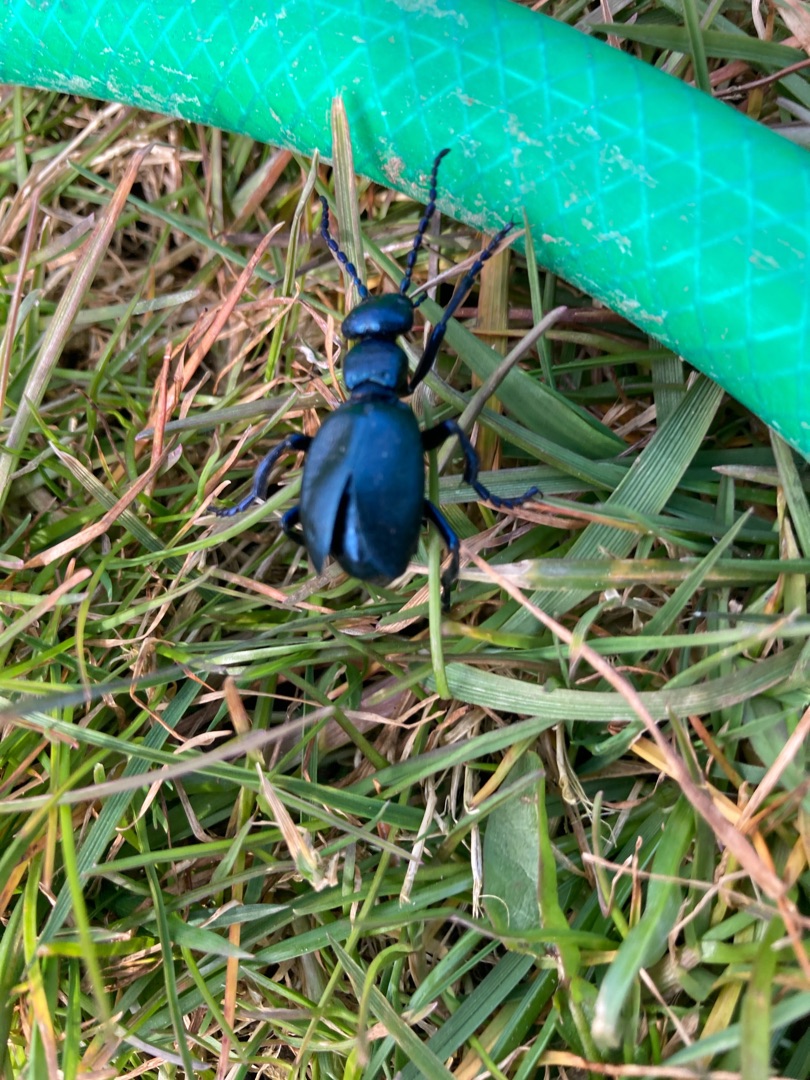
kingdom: Animalia
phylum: Arthropoda
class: Insecta
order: Coleoptera
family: Meloidae
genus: Meloe
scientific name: Meloe violaceus
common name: Blå oliebille
